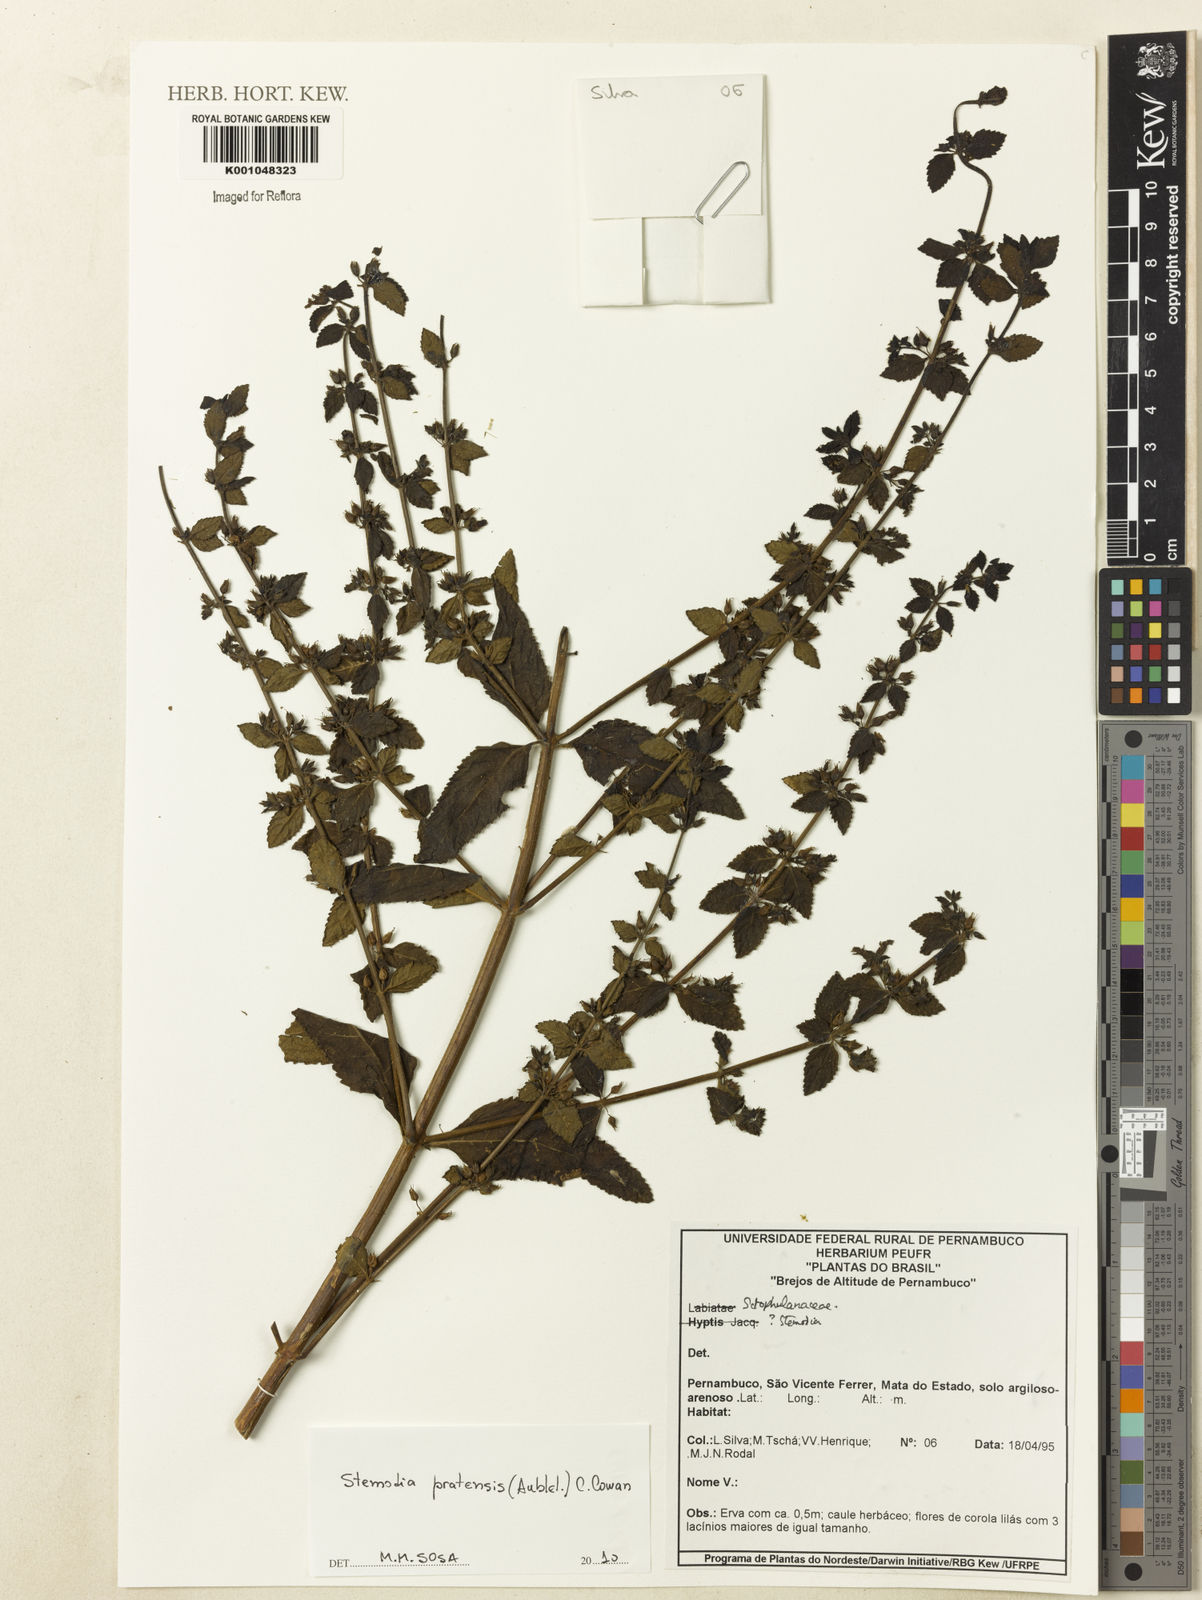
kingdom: Plantae
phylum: Tracheophyta
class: Magnoliopsida
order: Lamiales
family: Plantaginaceae
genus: Stemodia
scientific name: Stemodia foliosa
